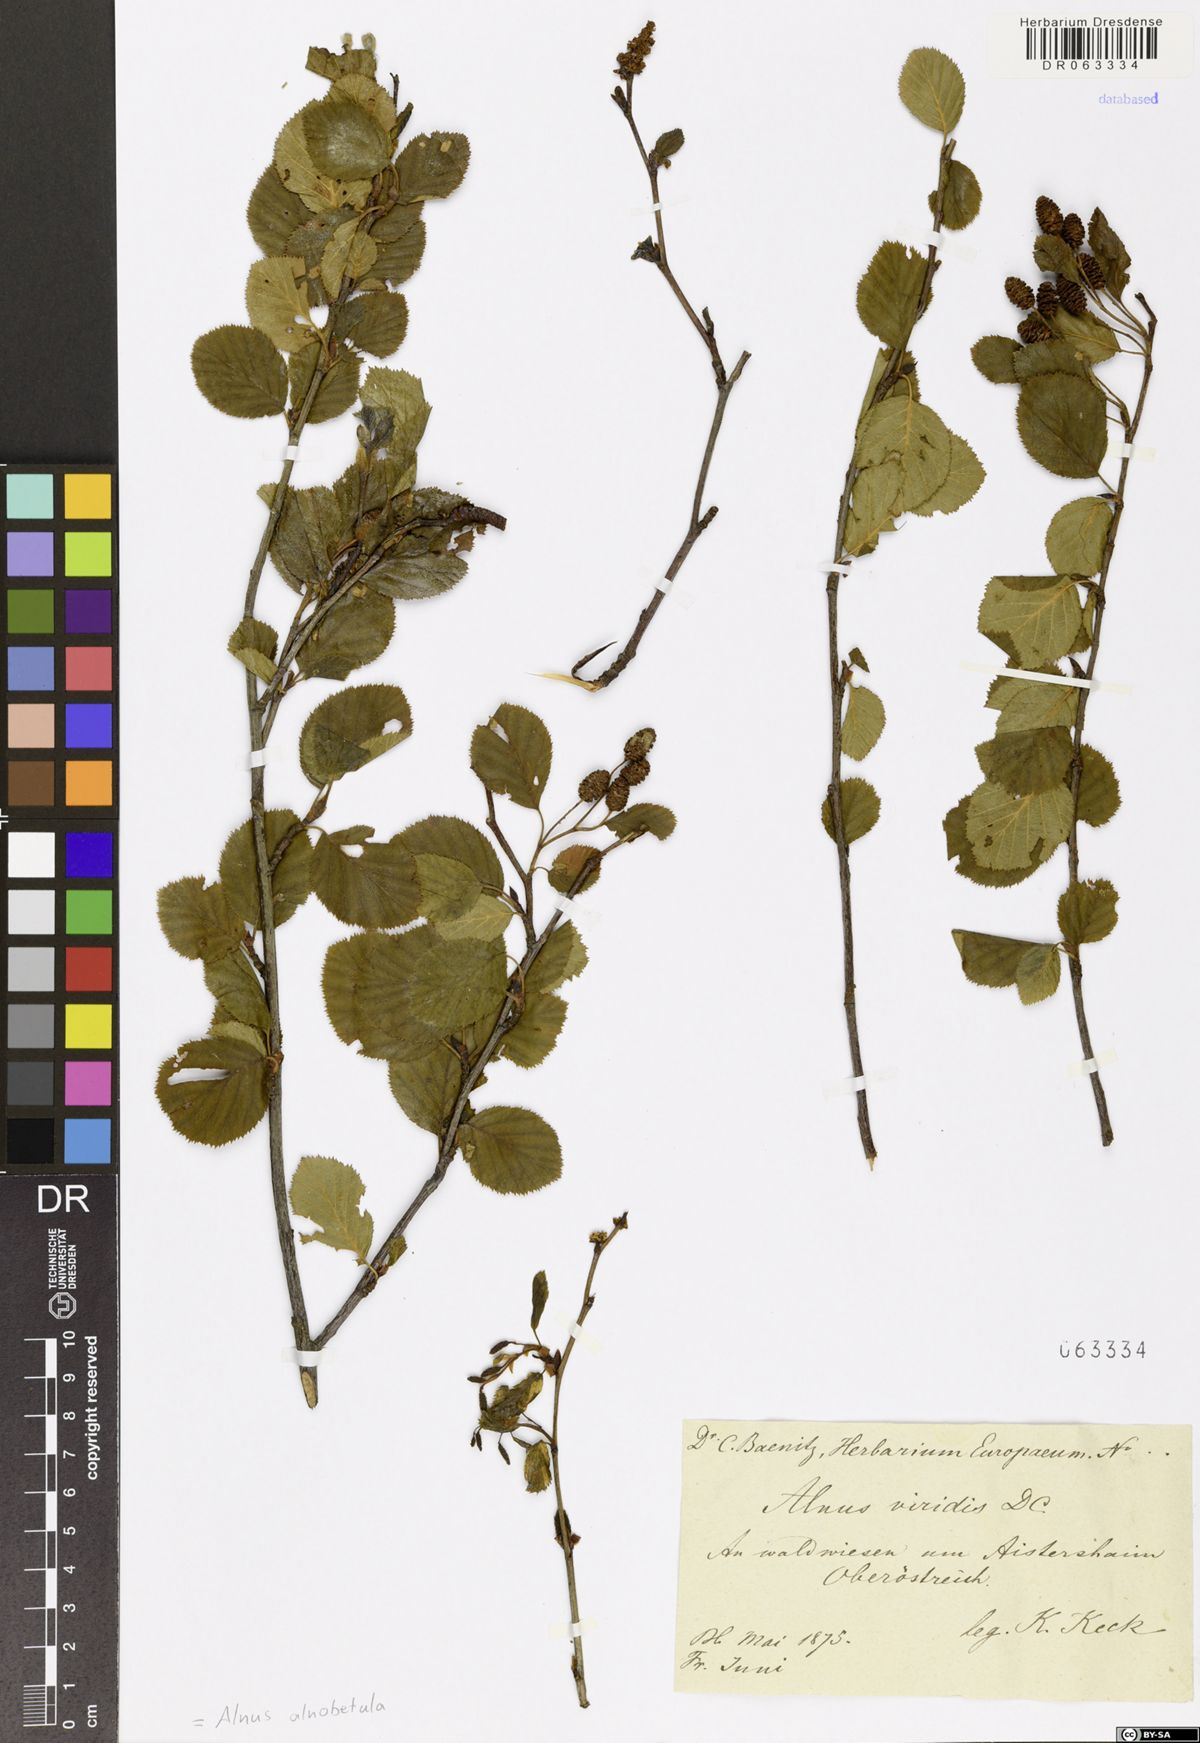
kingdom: Plantae
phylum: Tracheophyta
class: Magnoliopsida
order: Fagales
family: Betulaceae
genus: Alnus
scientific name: Alnus alnobetula
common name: Green alder
